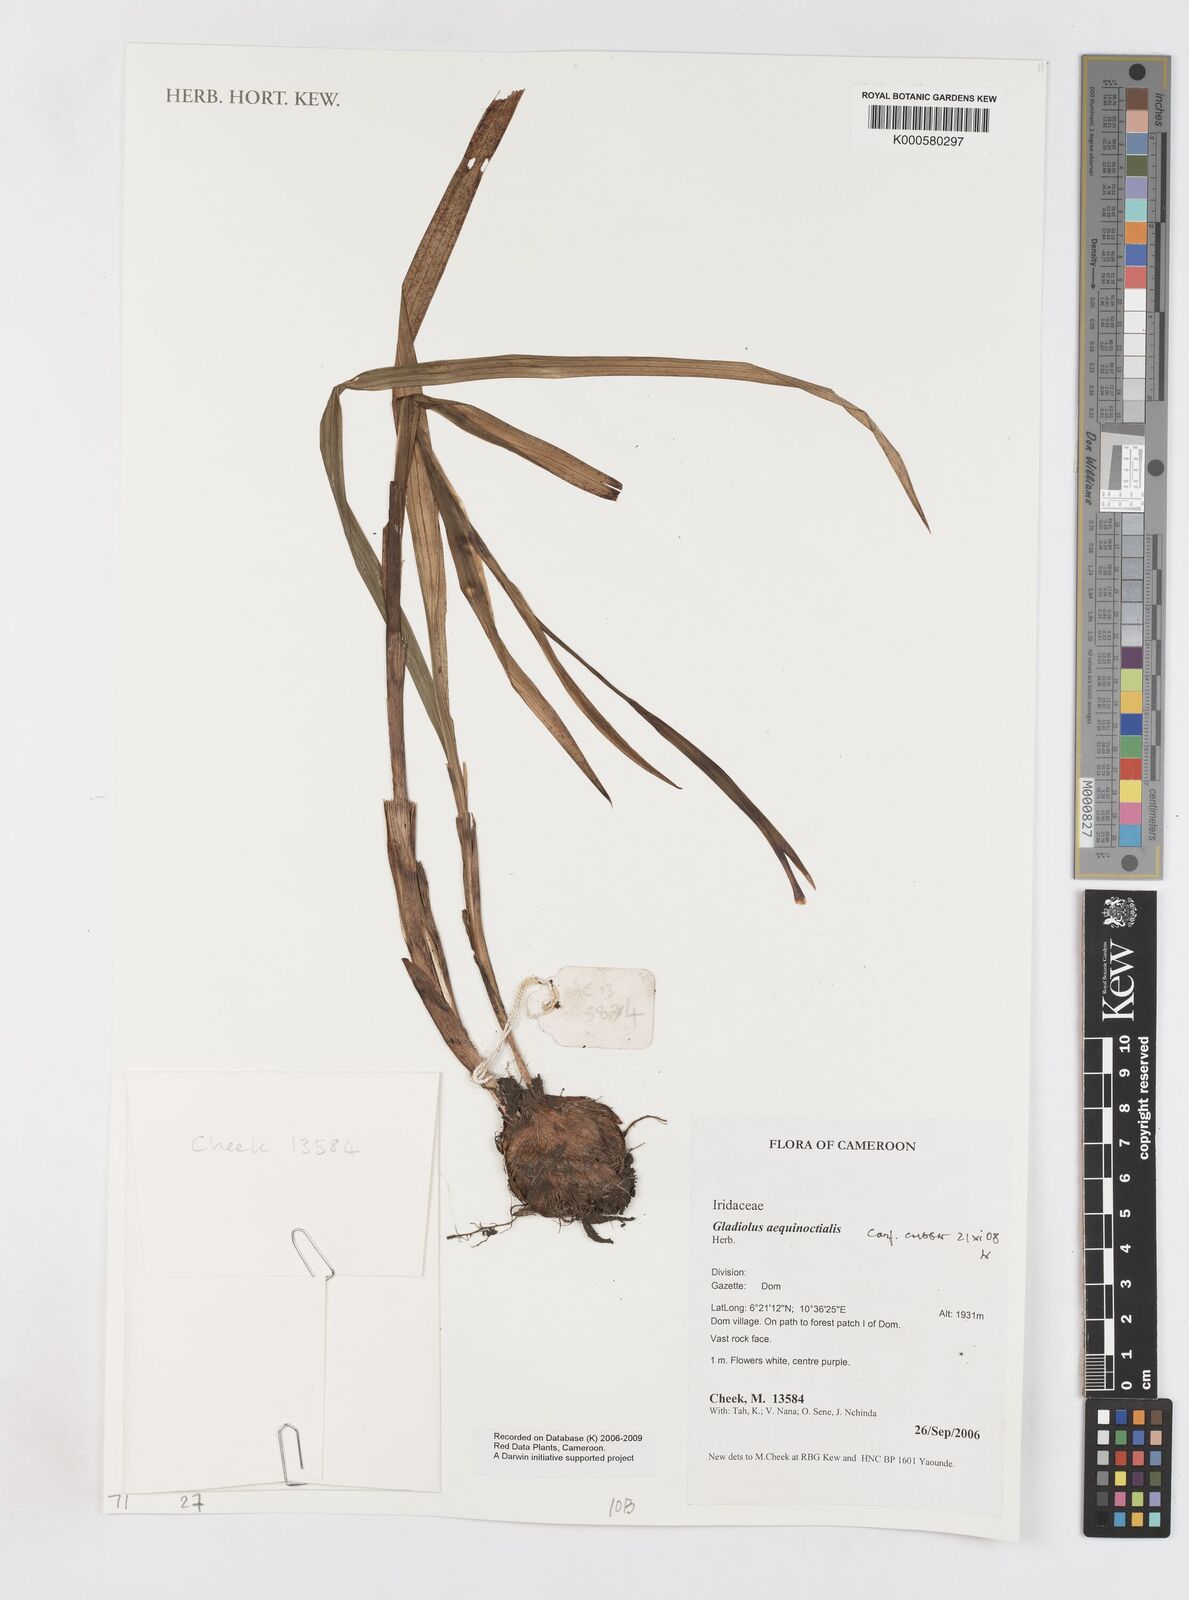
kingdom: Plantae
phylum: Tracheophyta
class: Liliopsida
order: Asparagales
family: Iridaceae
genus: Gladiolus
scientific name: Gladiolus aequinoctialis
